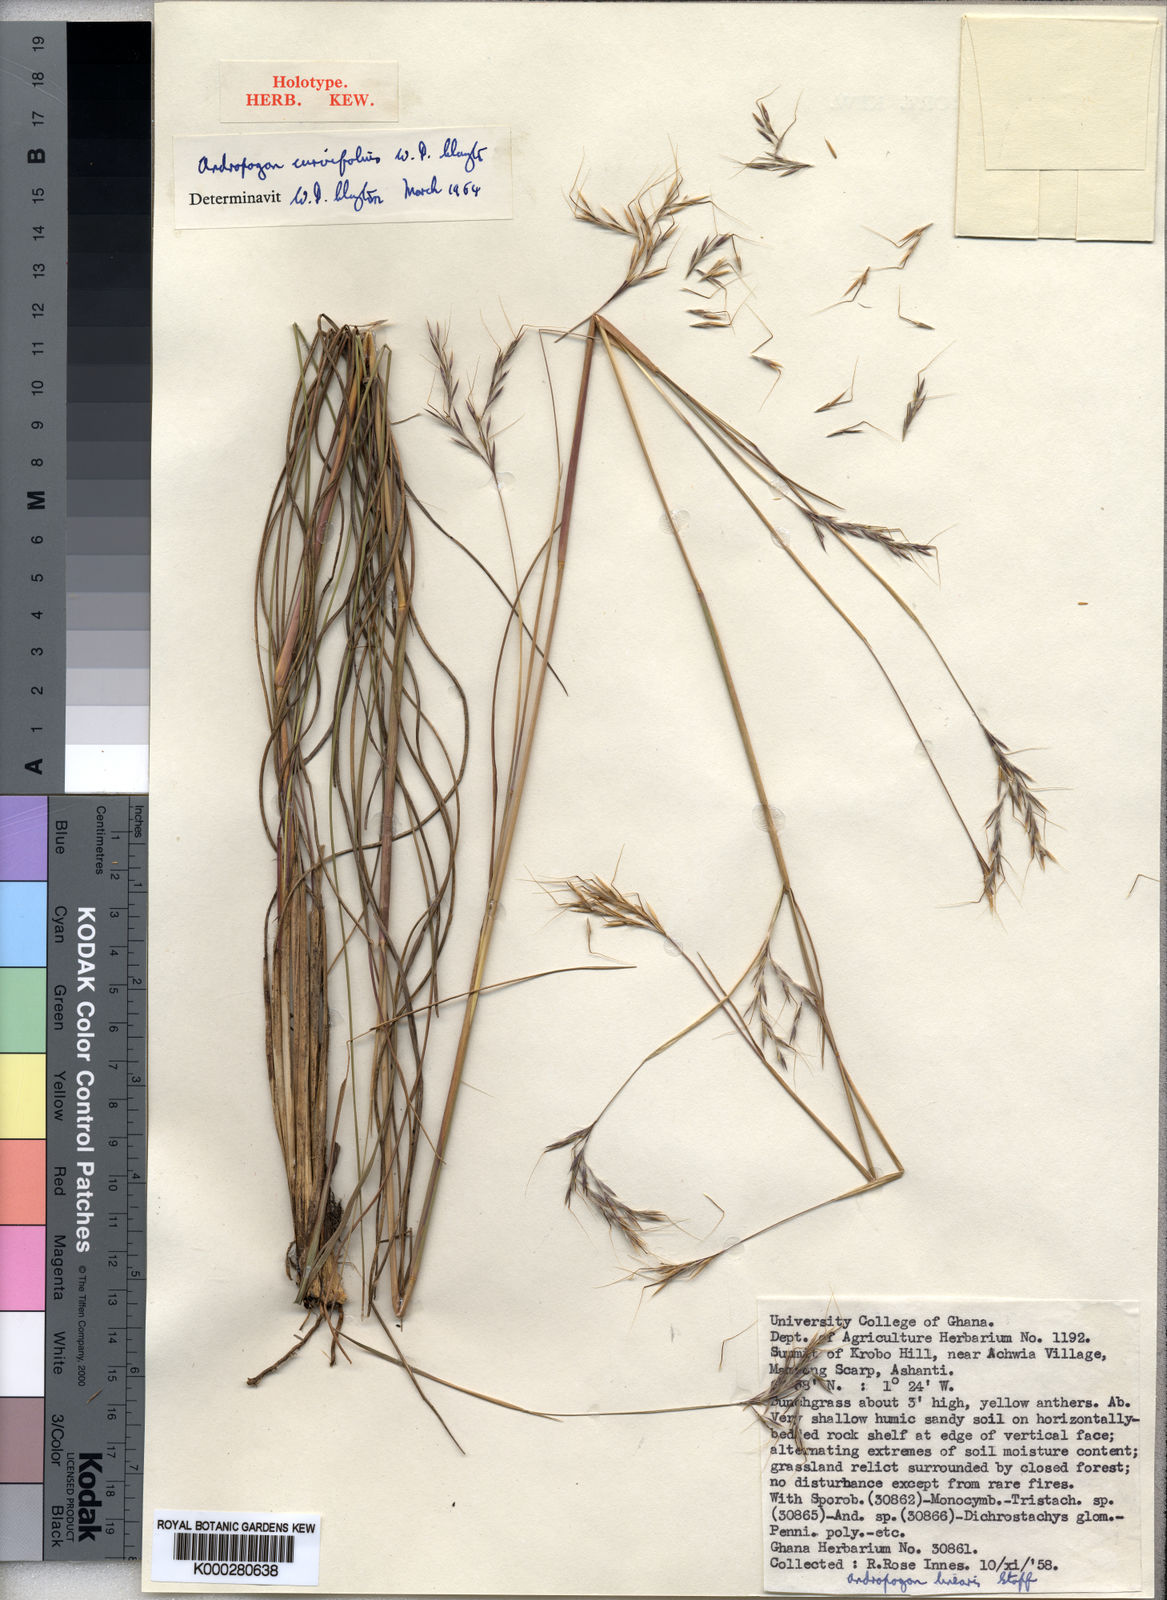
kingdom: Plantae
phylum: Tracheophyta
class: Liliopsida
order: Poales
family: Poaceae
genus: Andropogon
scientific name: Andropogon curvifolius
